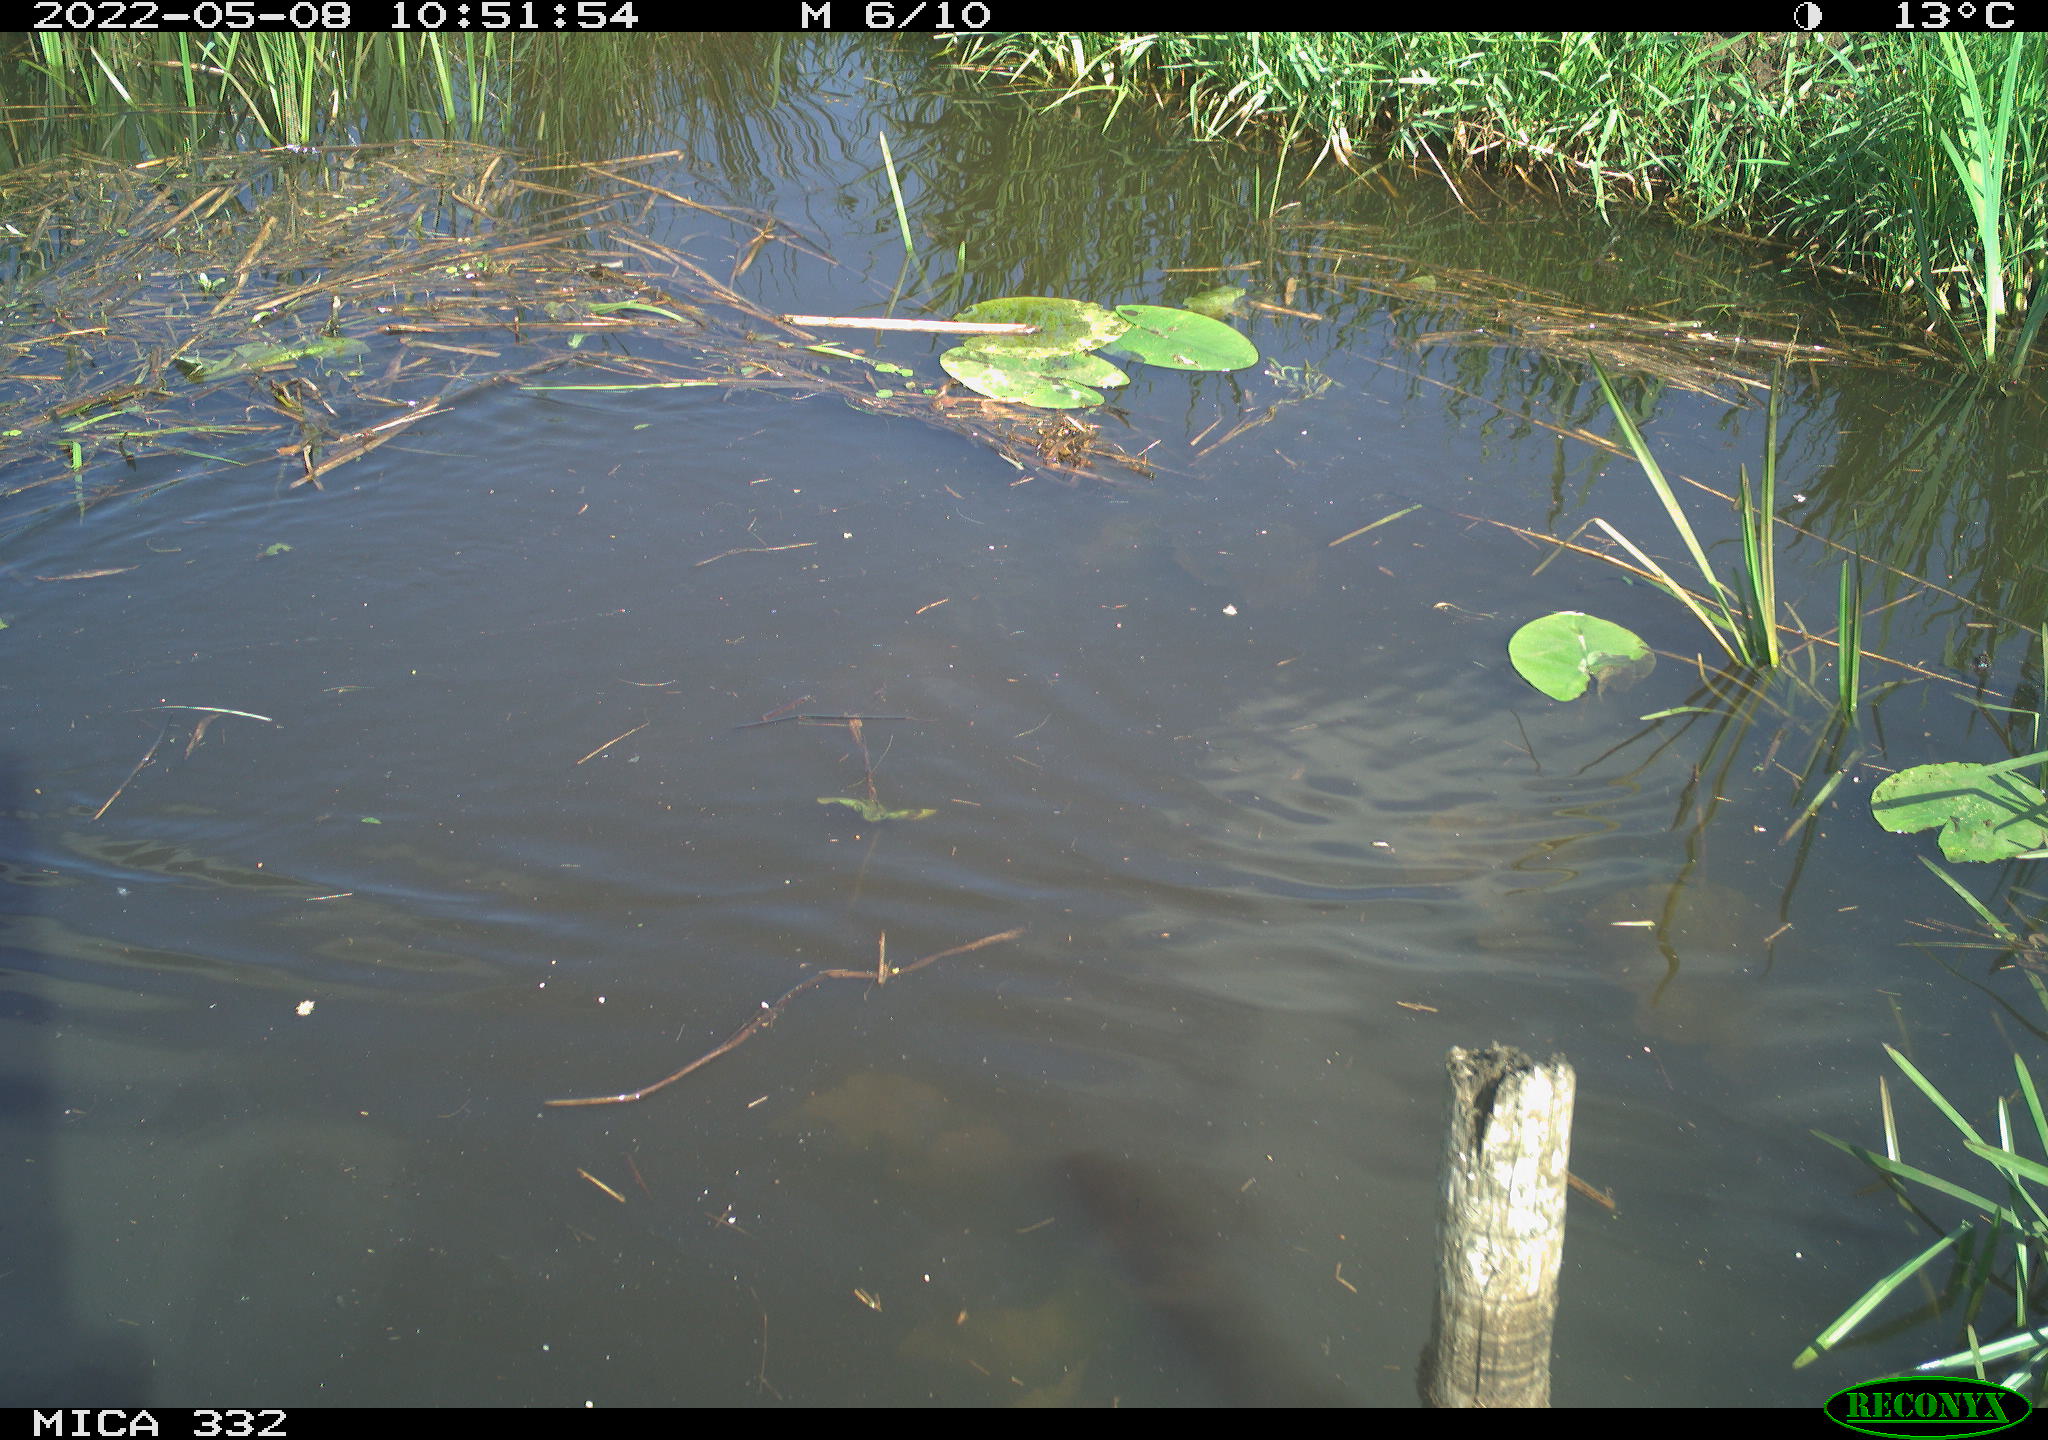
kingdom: Animalia
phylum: Chordata
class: Aves
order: Anseriformes
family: Anatidae
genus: Anas
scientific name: Anas platyrhynchos
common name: Mallard
